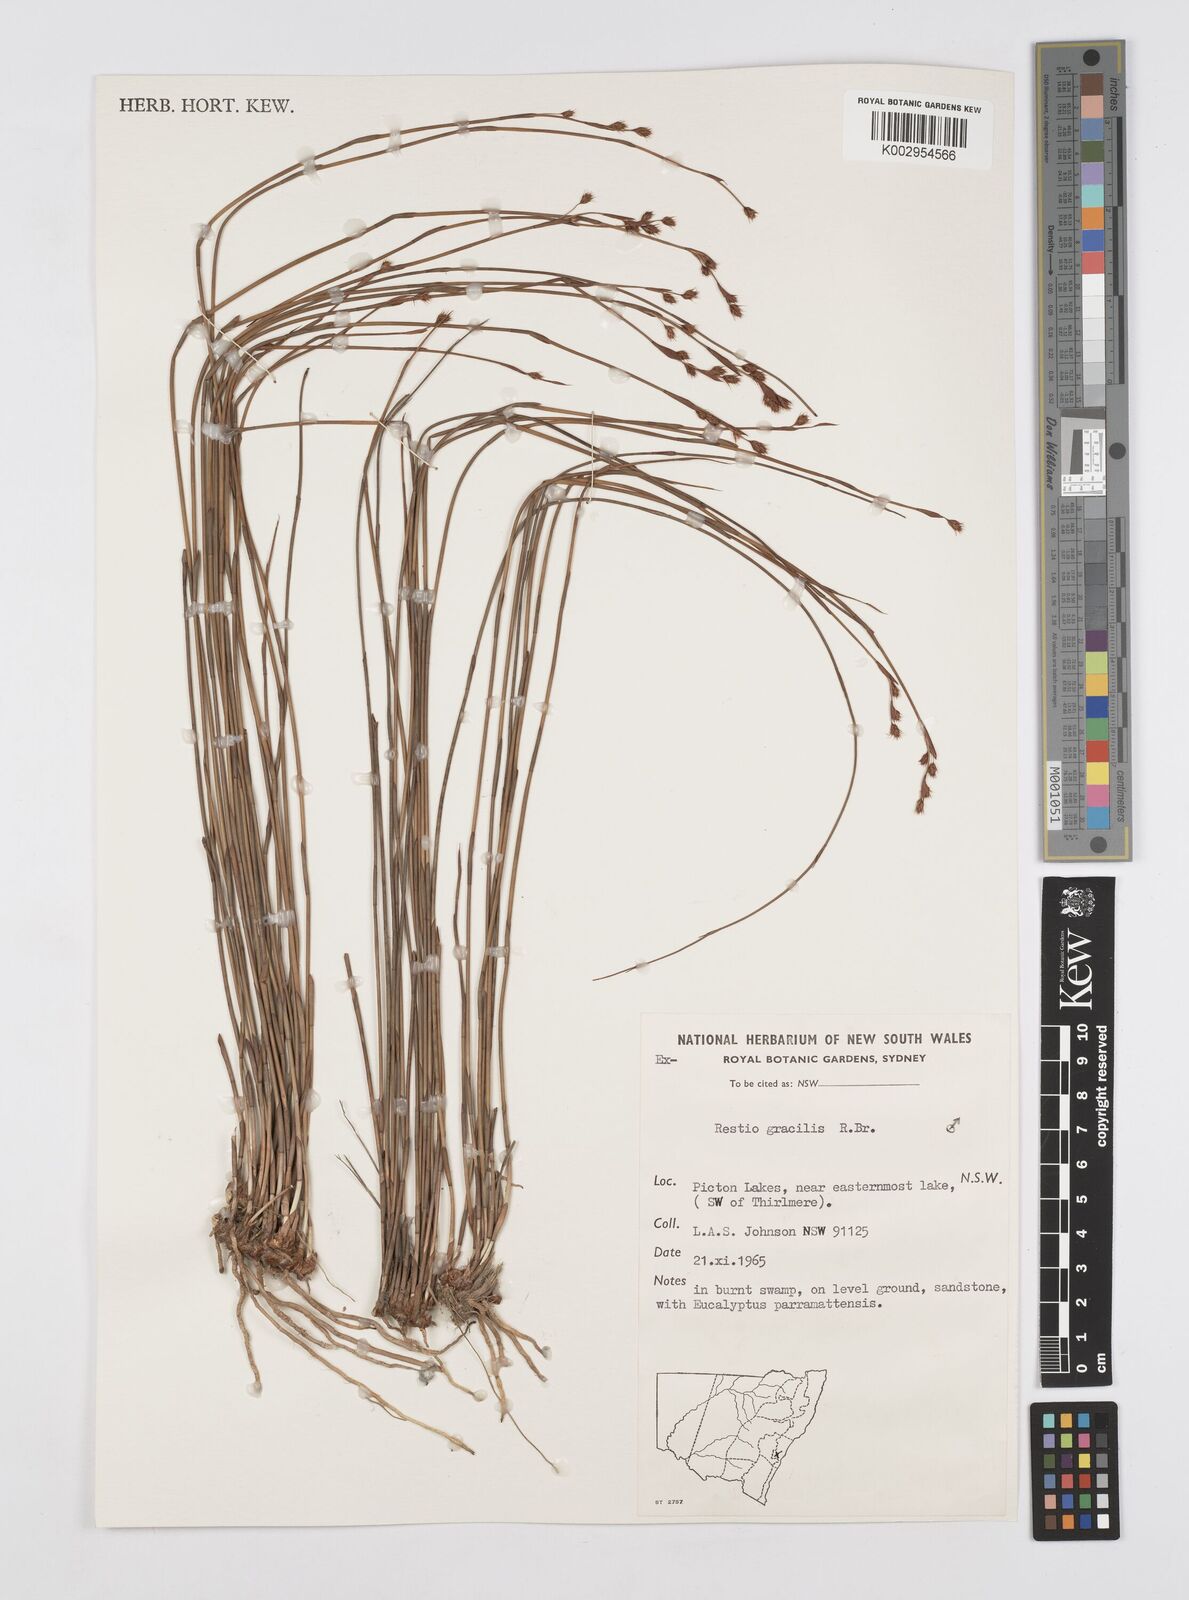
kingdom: Plantae
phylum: Tracheophyta
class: Liliopsida
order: Poales
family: Restionaceae
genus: Baloskion
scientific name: Baloskion gracile
